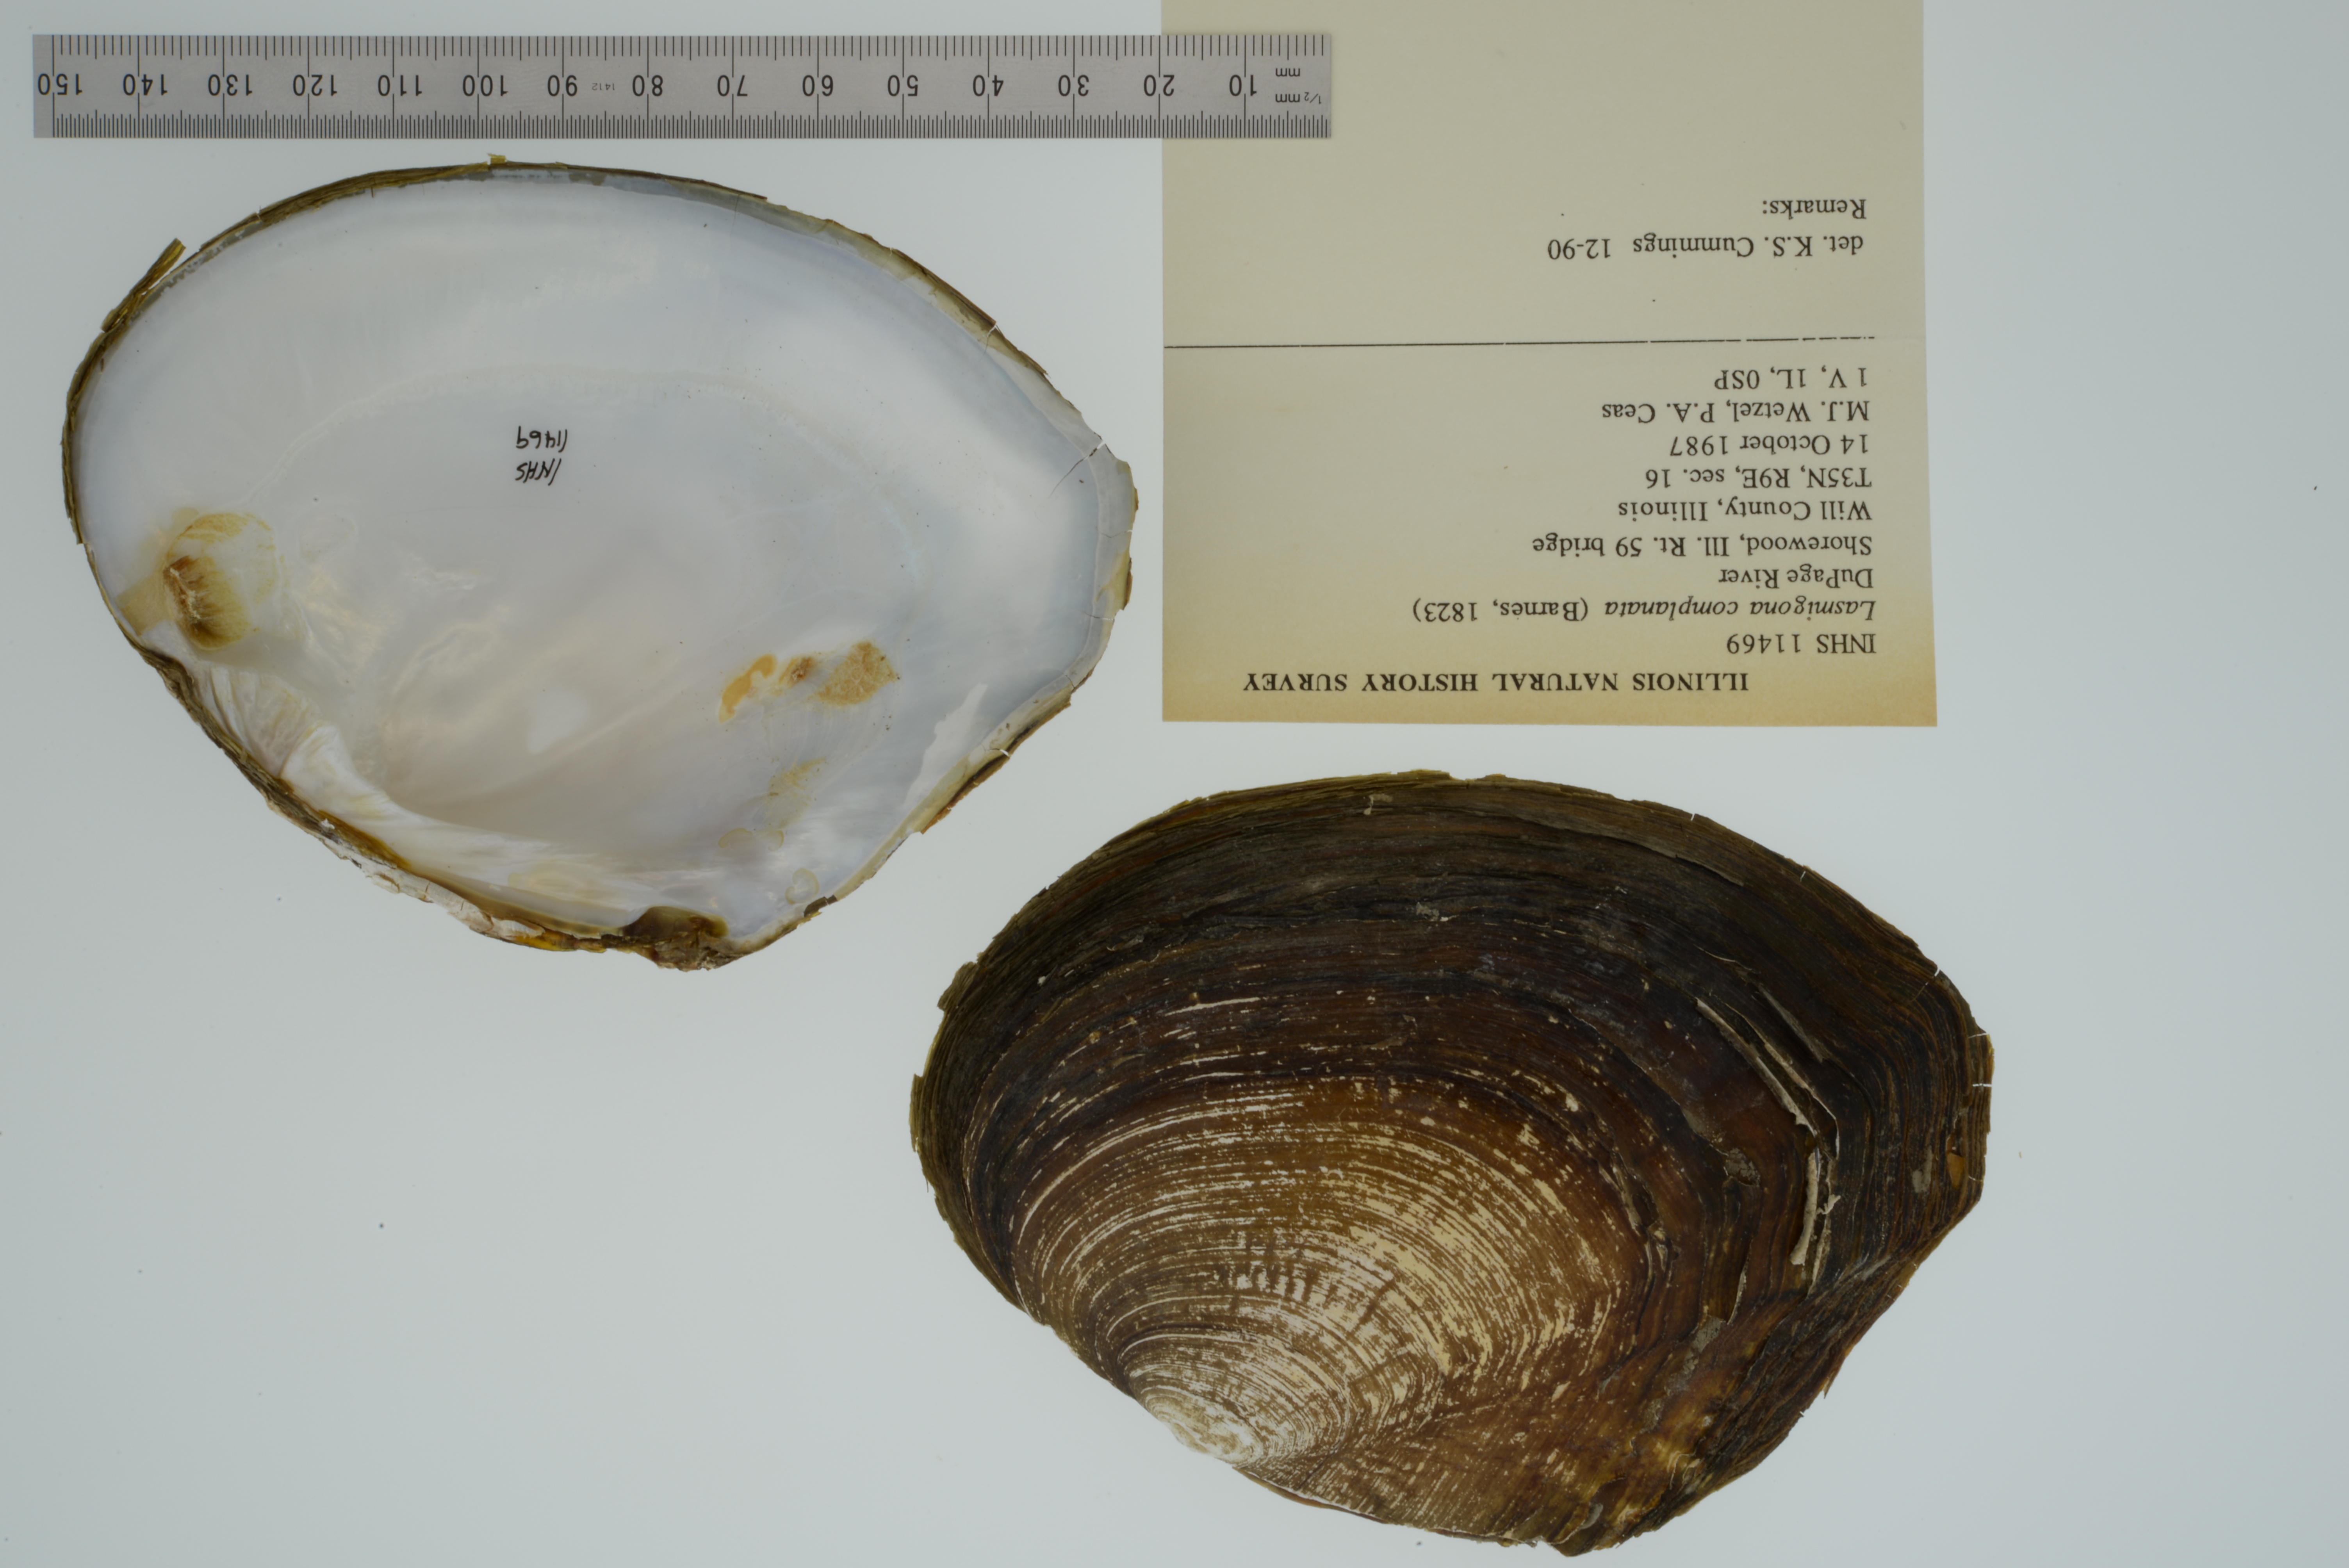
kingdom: Animalia
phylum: Mollusca
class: Bivalvia
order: Unionida
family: Unionidae
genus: Lasmigona
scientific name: Lasmigona complanata
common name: White heelsplitter
